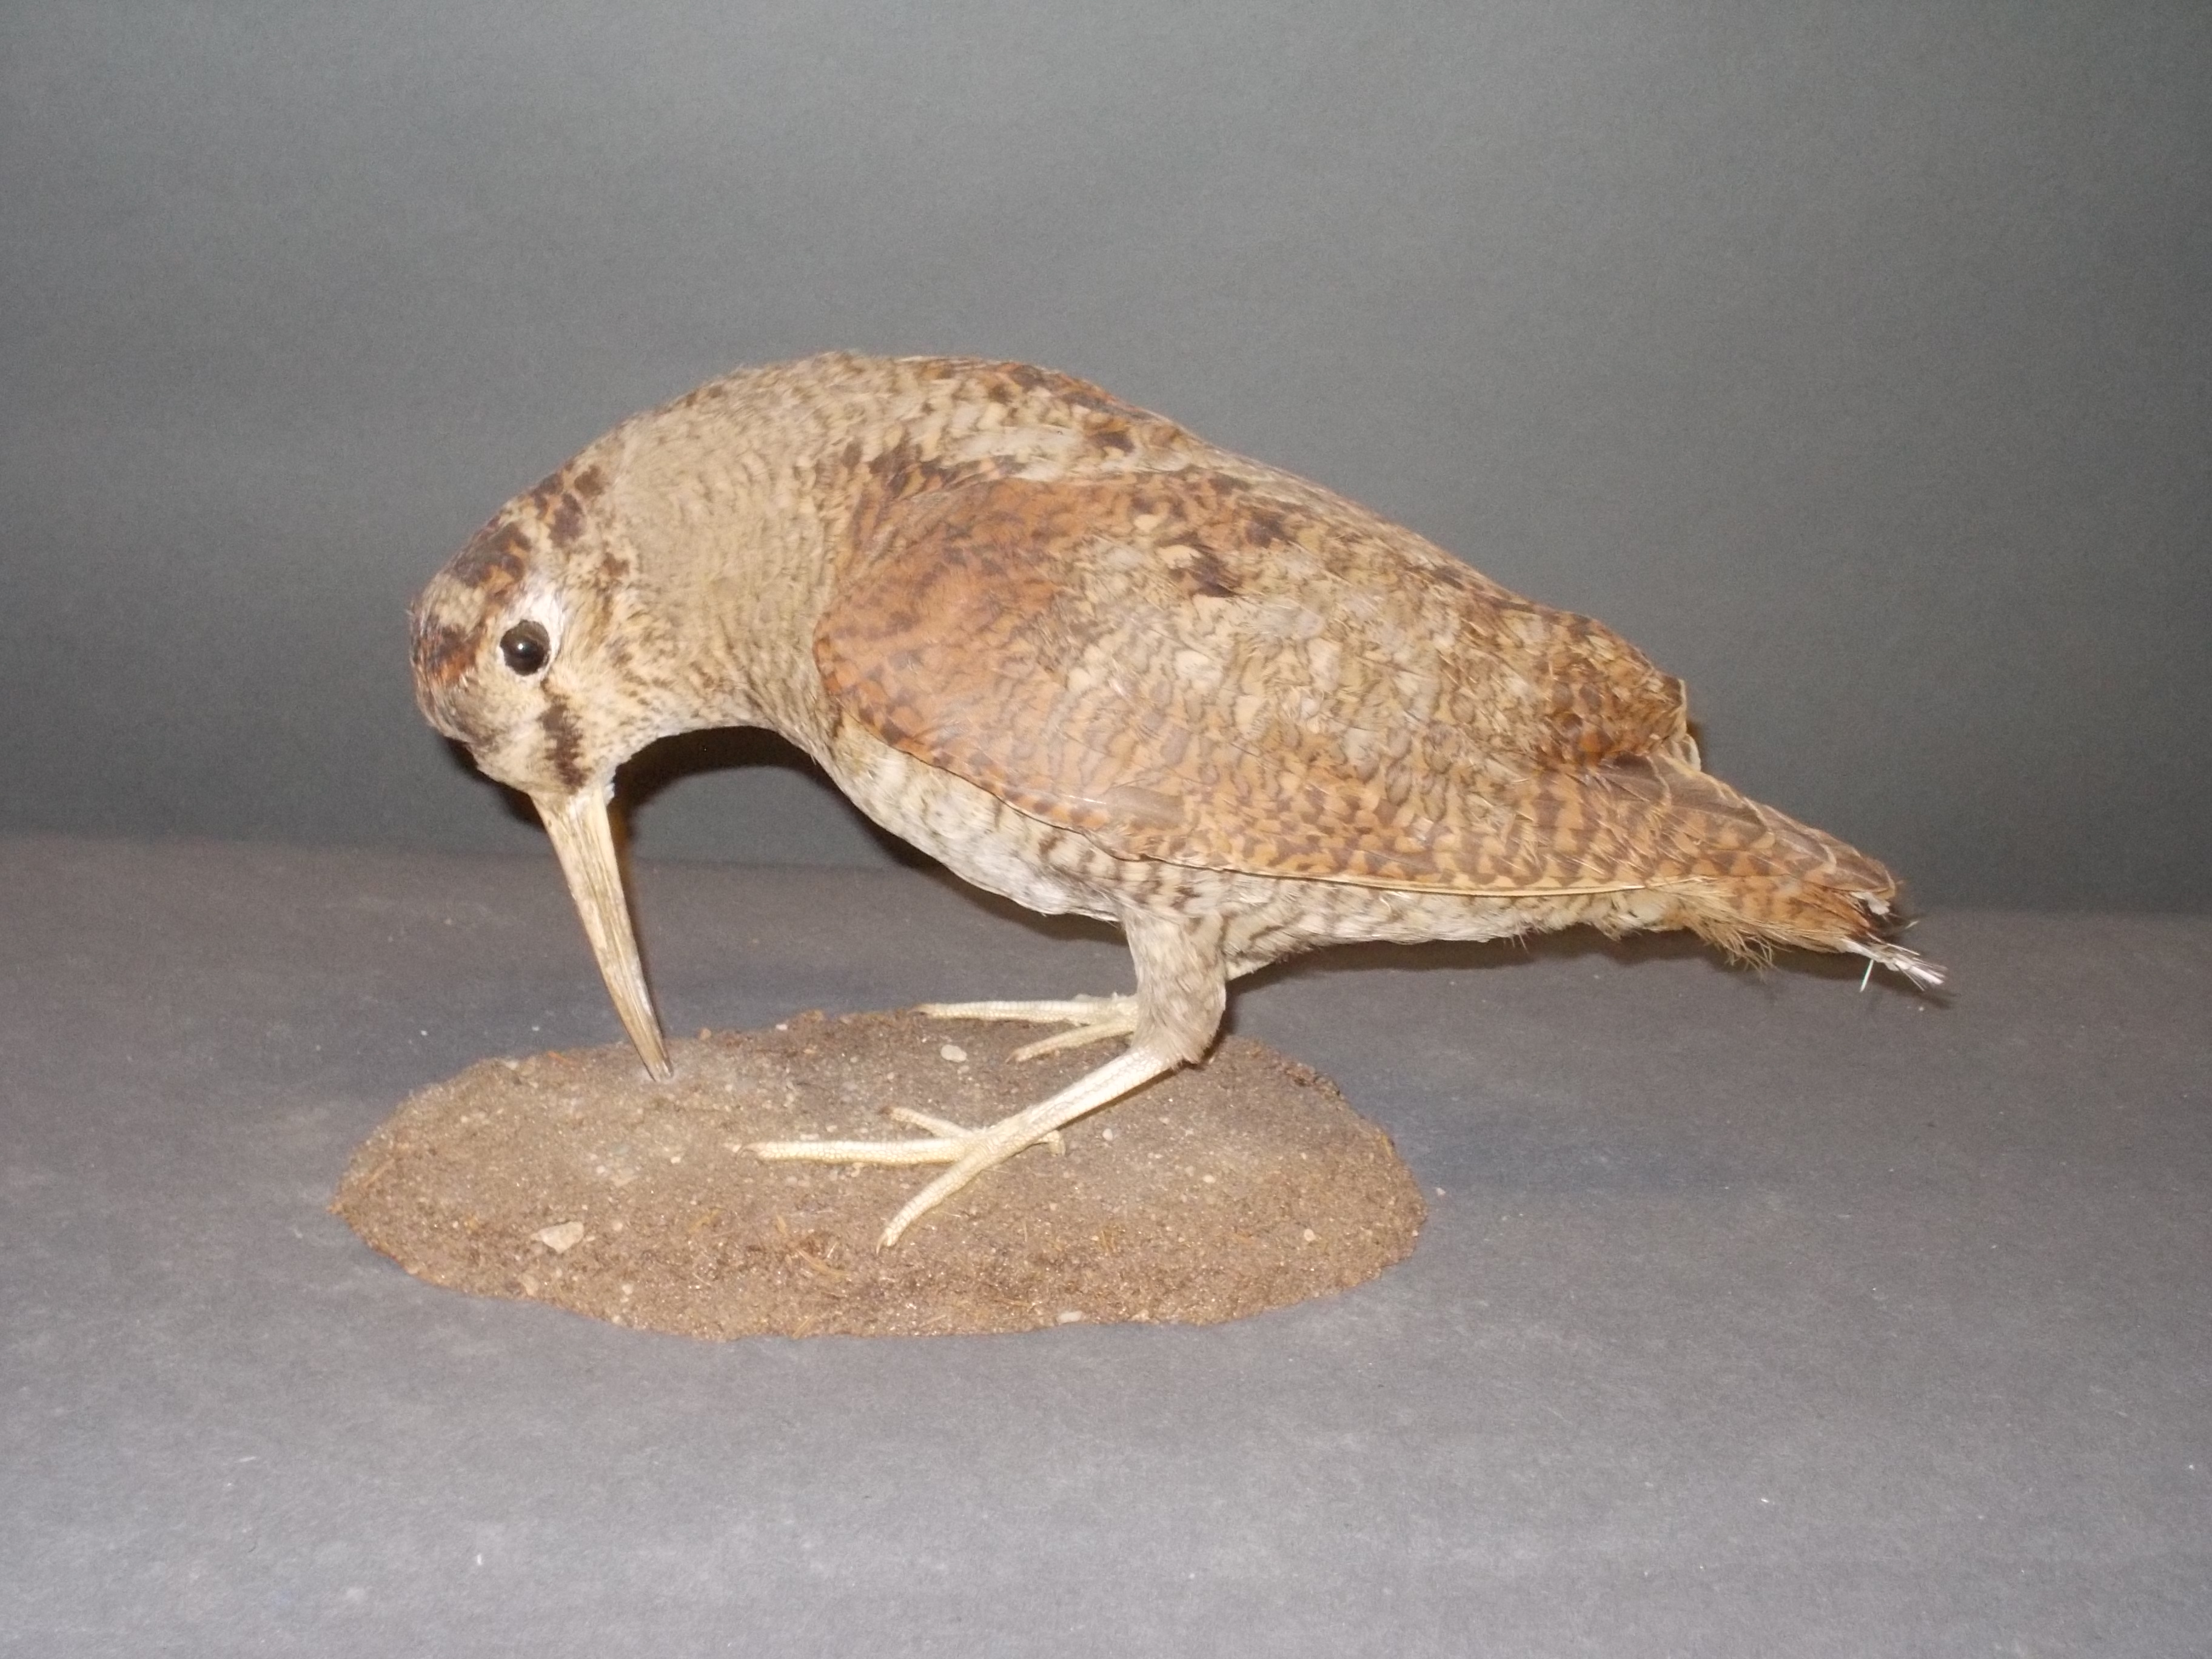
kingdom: Animalia
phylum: Chordata
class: Aves
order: Charadriiformes
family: Scolopacidae
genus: Scolopax
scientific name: Scolopax rusticola
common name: Eurasian woodcock
